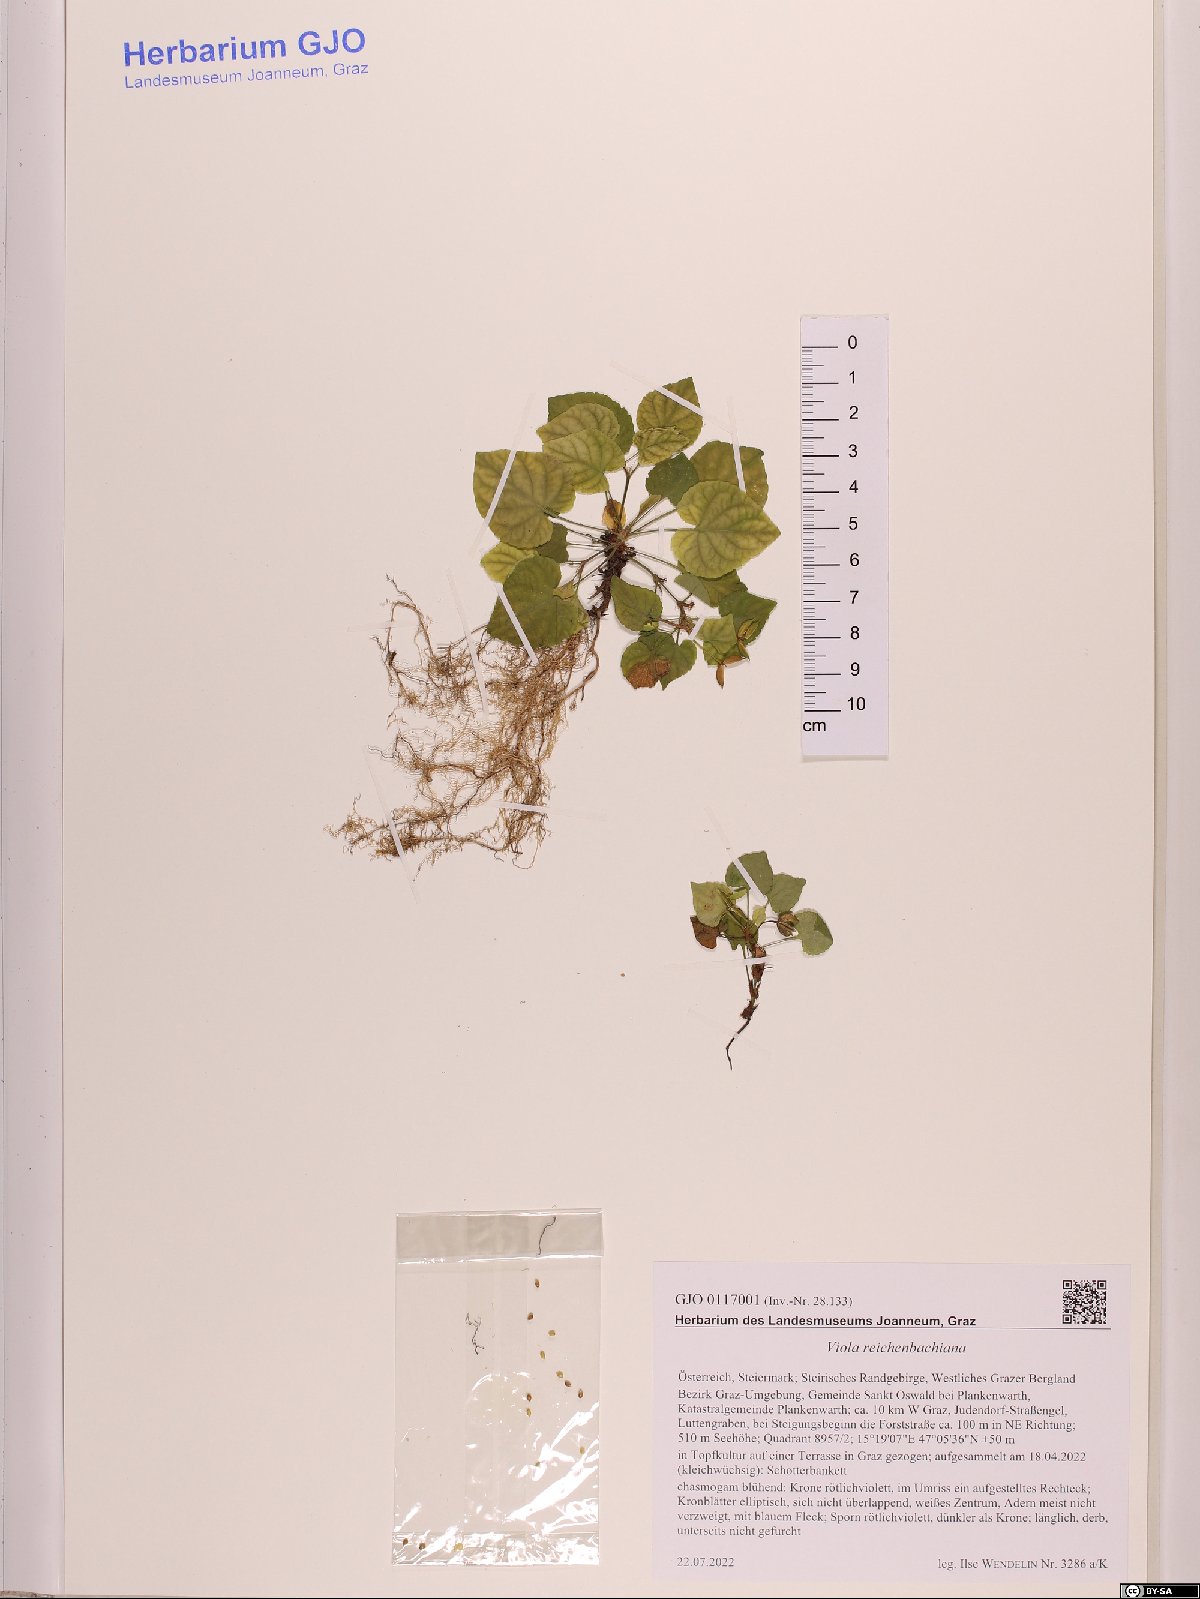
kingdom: Plantae
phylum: Tracheophyta
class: Magnoliopsida
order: Malpighiales
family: Violaceae
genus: Viola
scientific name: Viola reichenbachiana
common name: Early dog-violet
